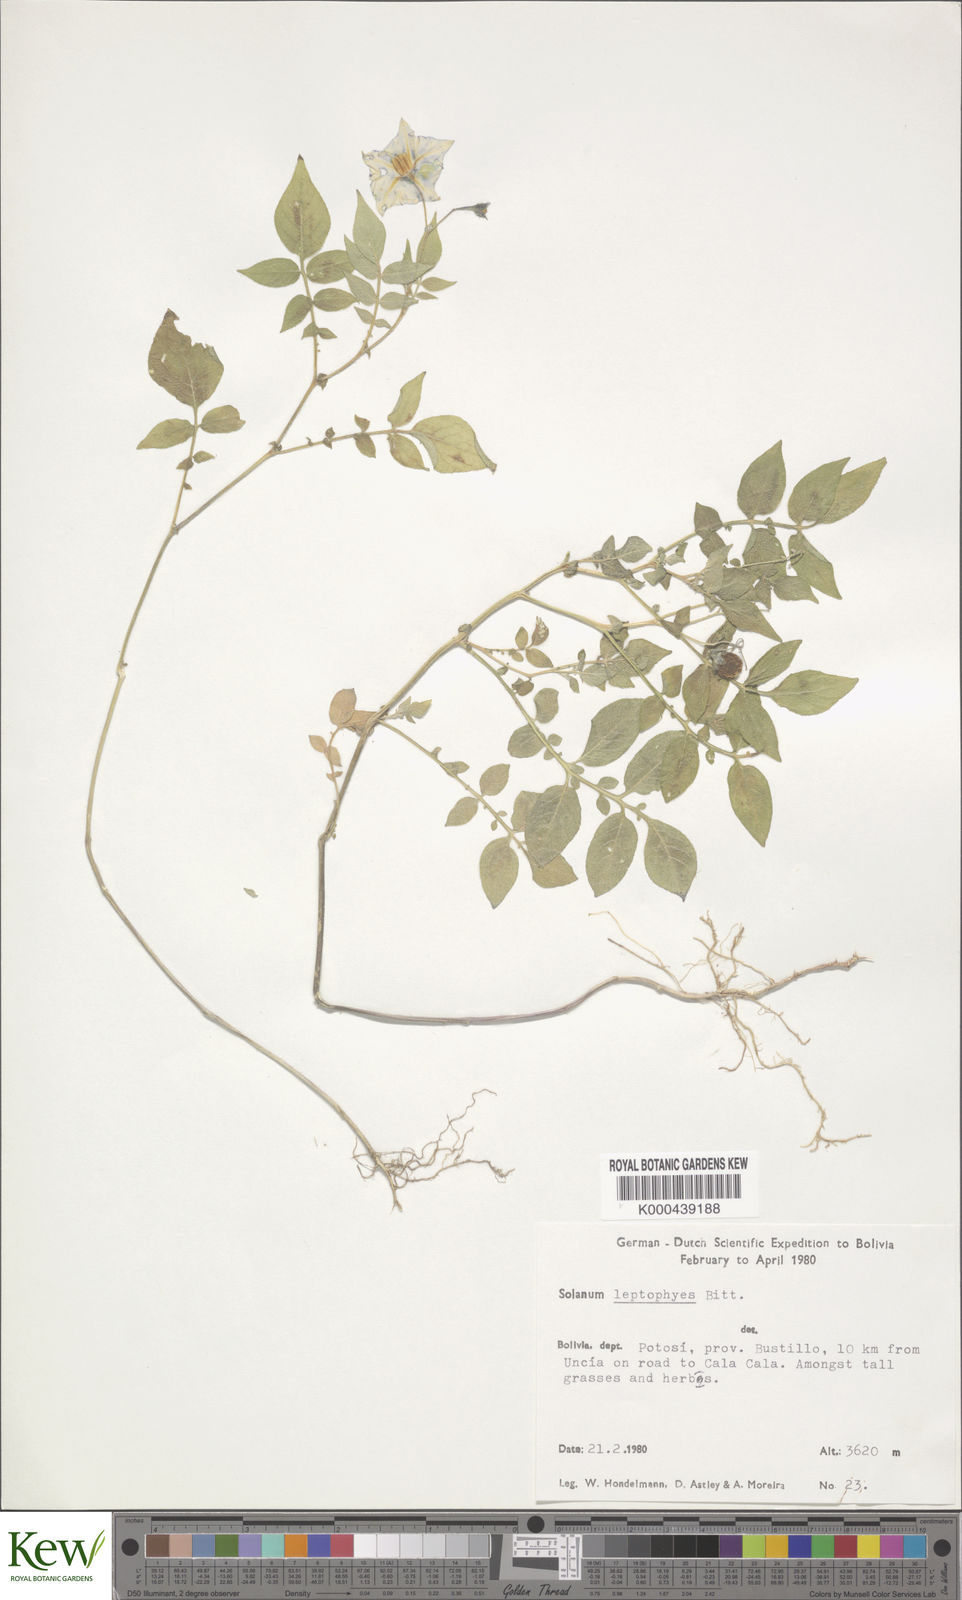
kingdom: Plantae
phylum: Tracheophyta
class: Magnoliopsida
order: Solanales
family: Solanaceae
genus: Solanum
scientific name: Solanum brevicaule
